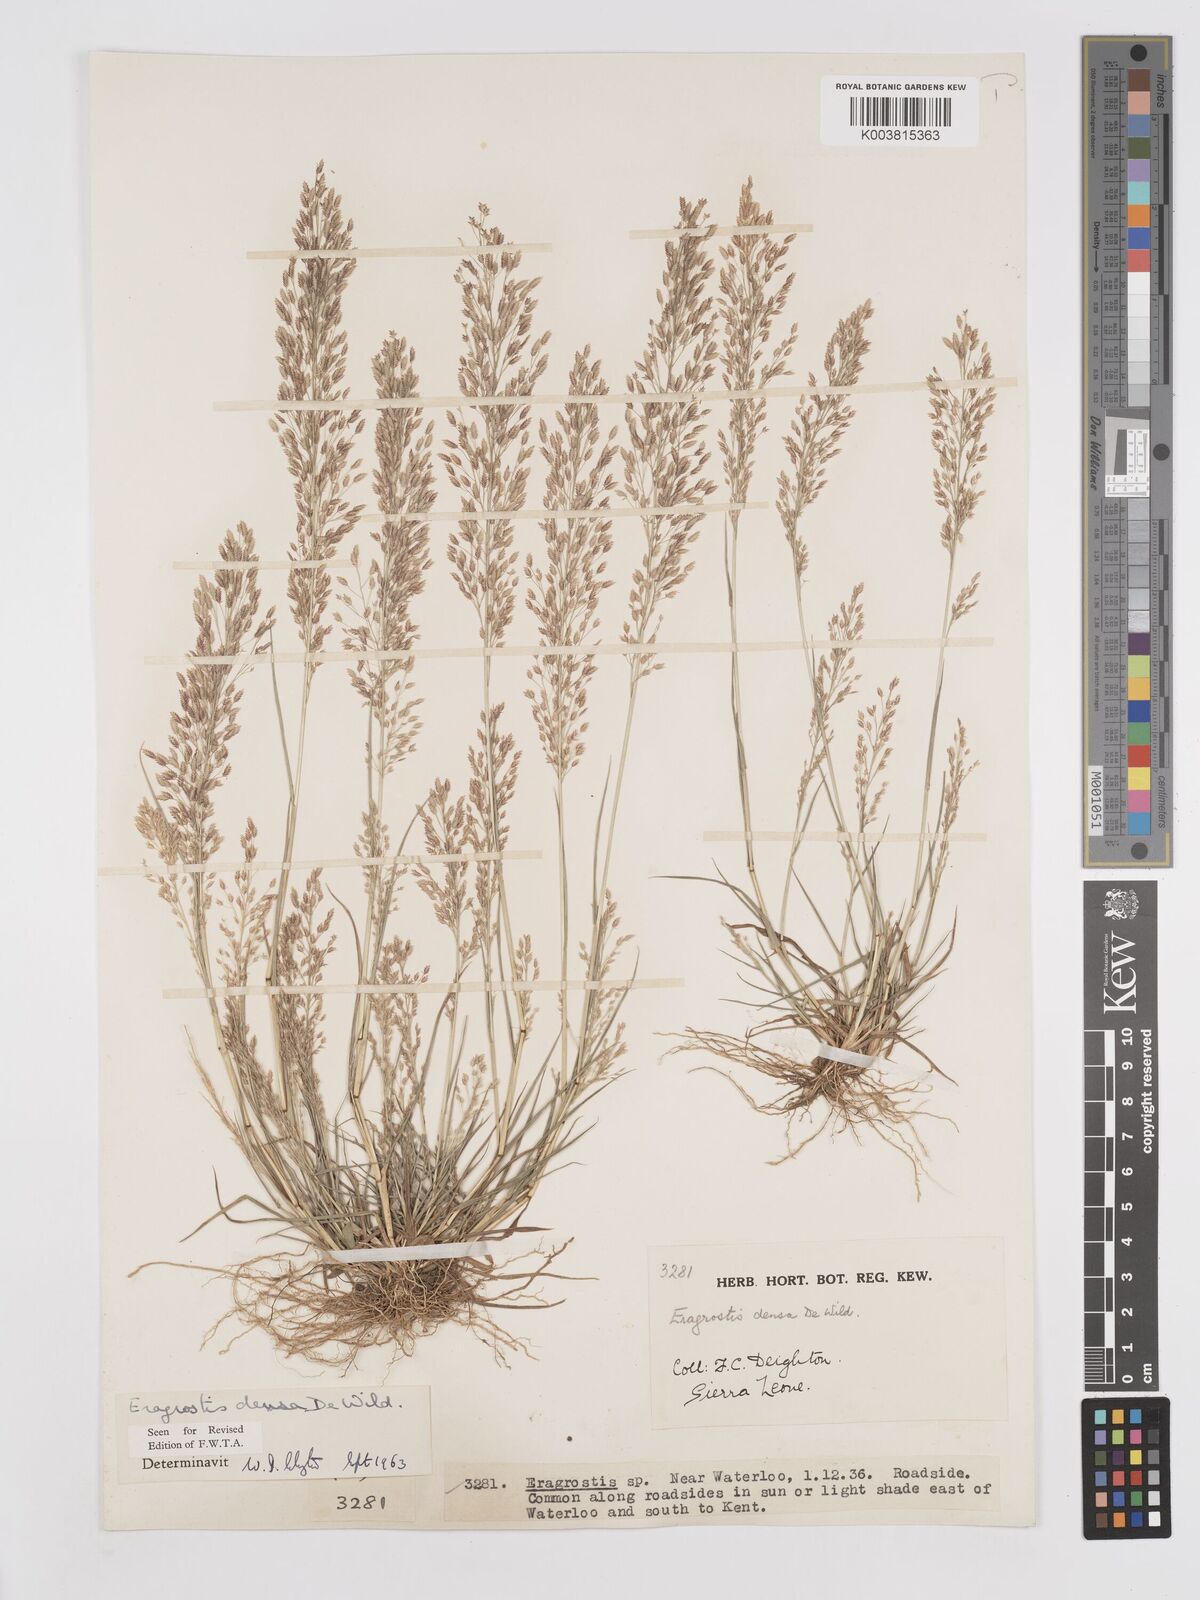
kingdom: Plantae
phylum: Tracheophyta
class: Liliopsida
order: Poales
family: Poaceae
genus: Eragrostis
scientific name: Eragrostis welwitschii
